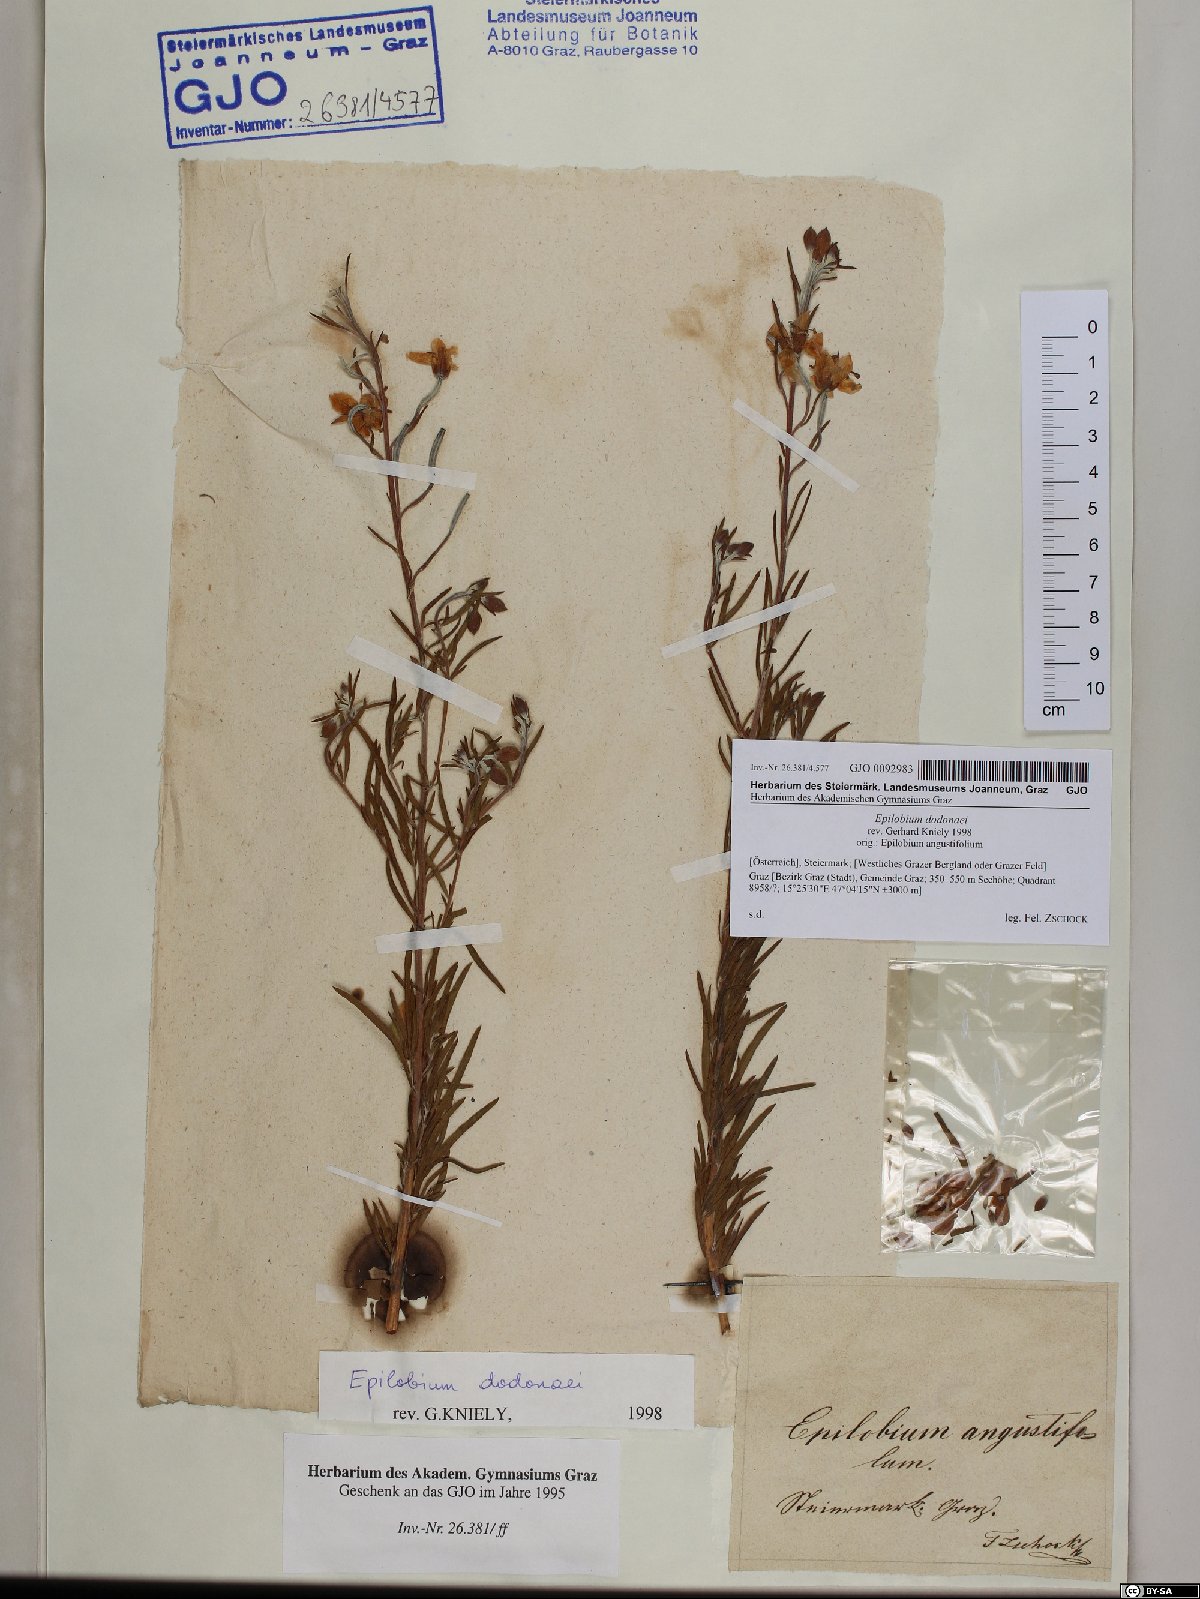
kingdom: Plantae
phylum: Tracheophyta
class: Magnoliopsida
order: Myrtales
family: Onagraceae
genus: Chamaenerion
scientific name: Chamaenerion dodonaei
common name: Rosemary-leaved willowherb
